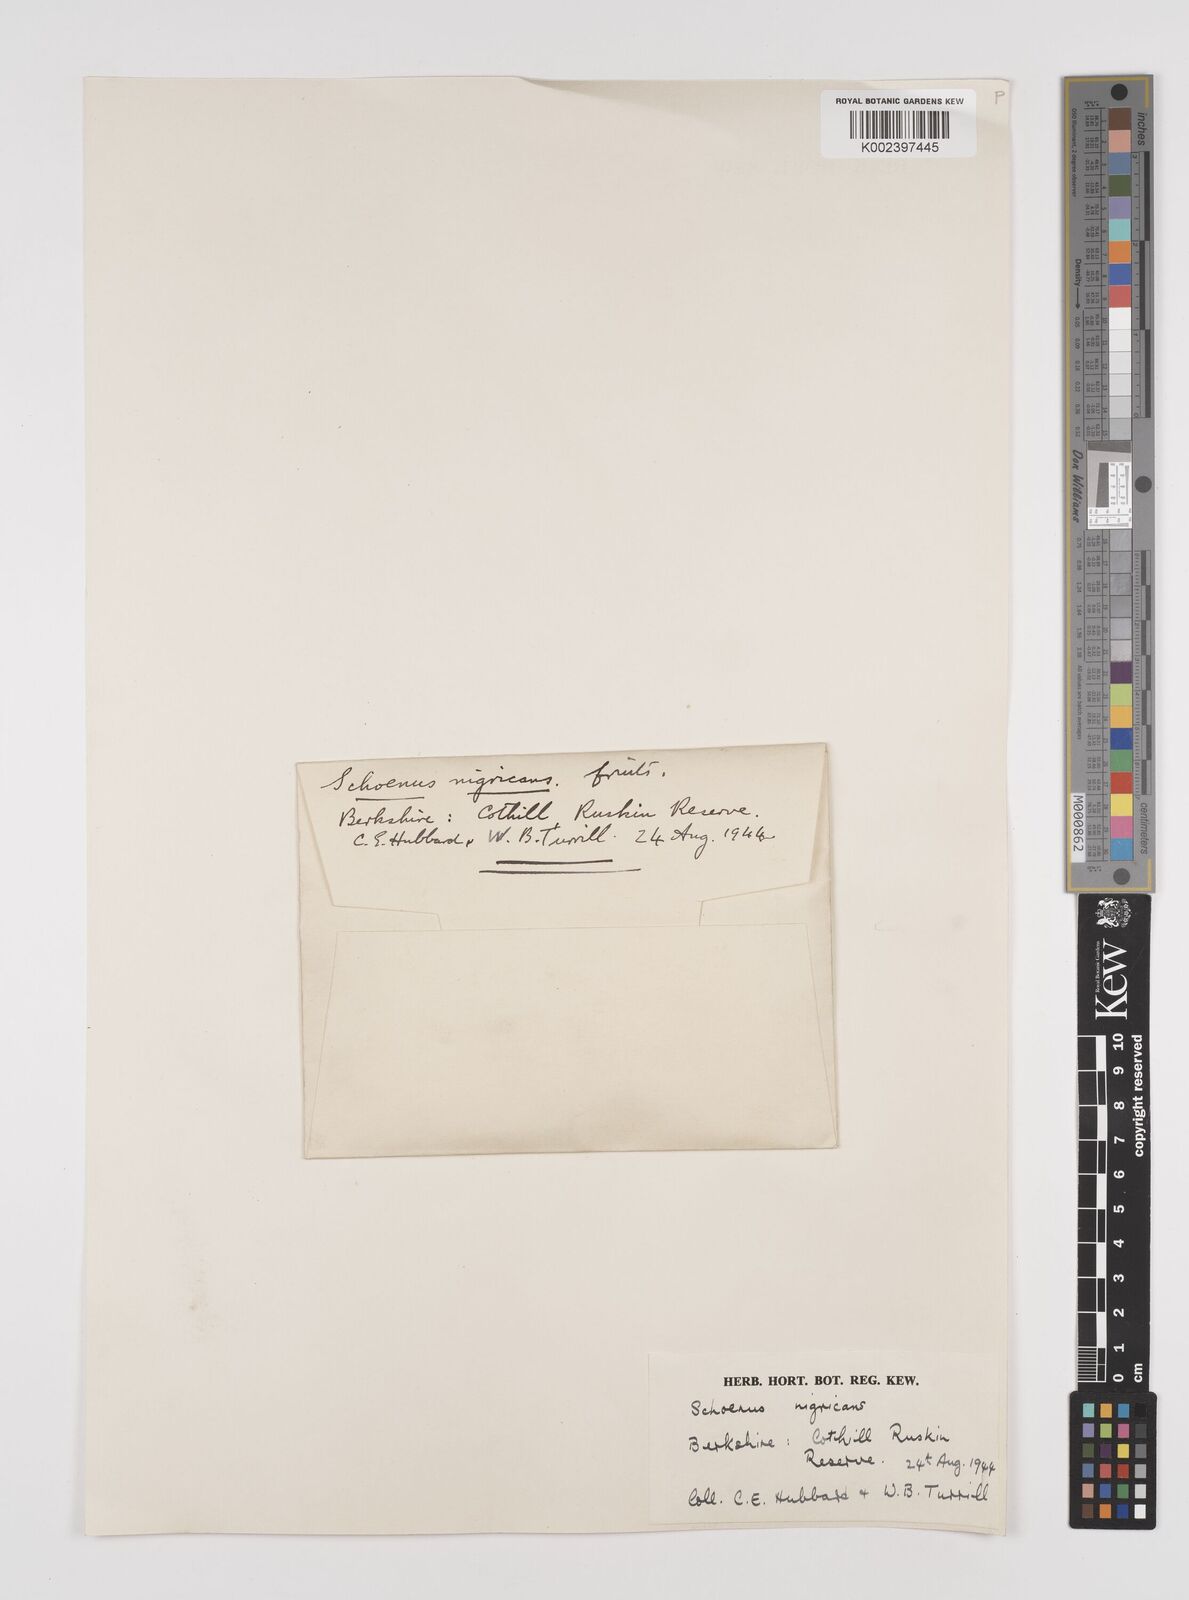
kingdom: Plantae
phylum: Tracheophyta
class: Liliopsida
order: Poales
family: Cyperaceae
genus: Schoenus
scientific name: Schoenus nigricans
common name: Black bog-rush
